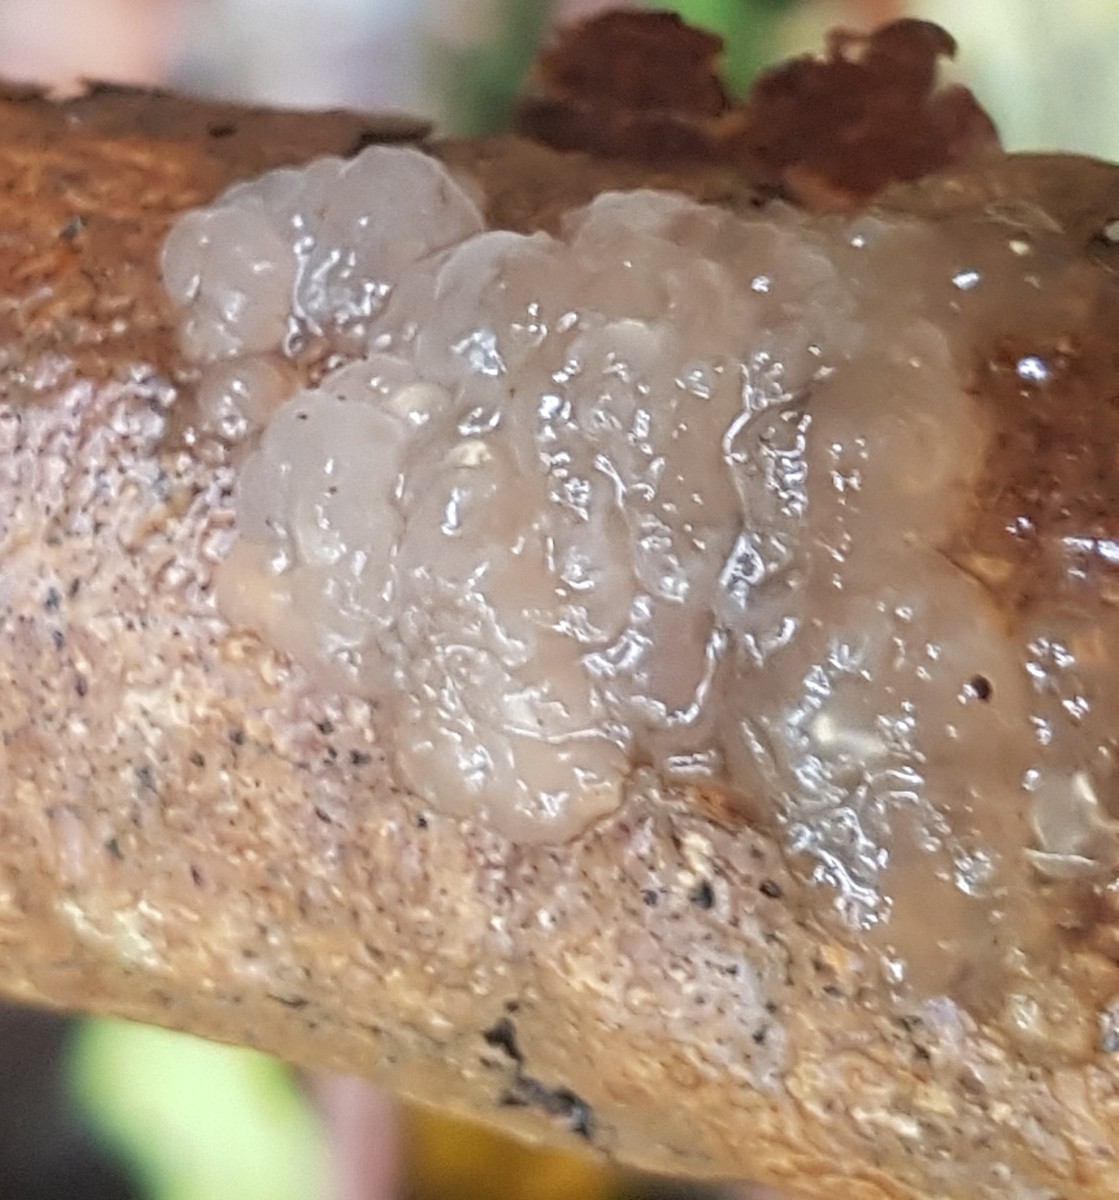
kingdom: Fungi
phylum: Basidiomycota
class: Agaricomycetes
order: Auriculariales
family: Hyaloriaceae
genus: Myxarium
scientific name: Myxarium nucleatum
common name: klar bævretop
